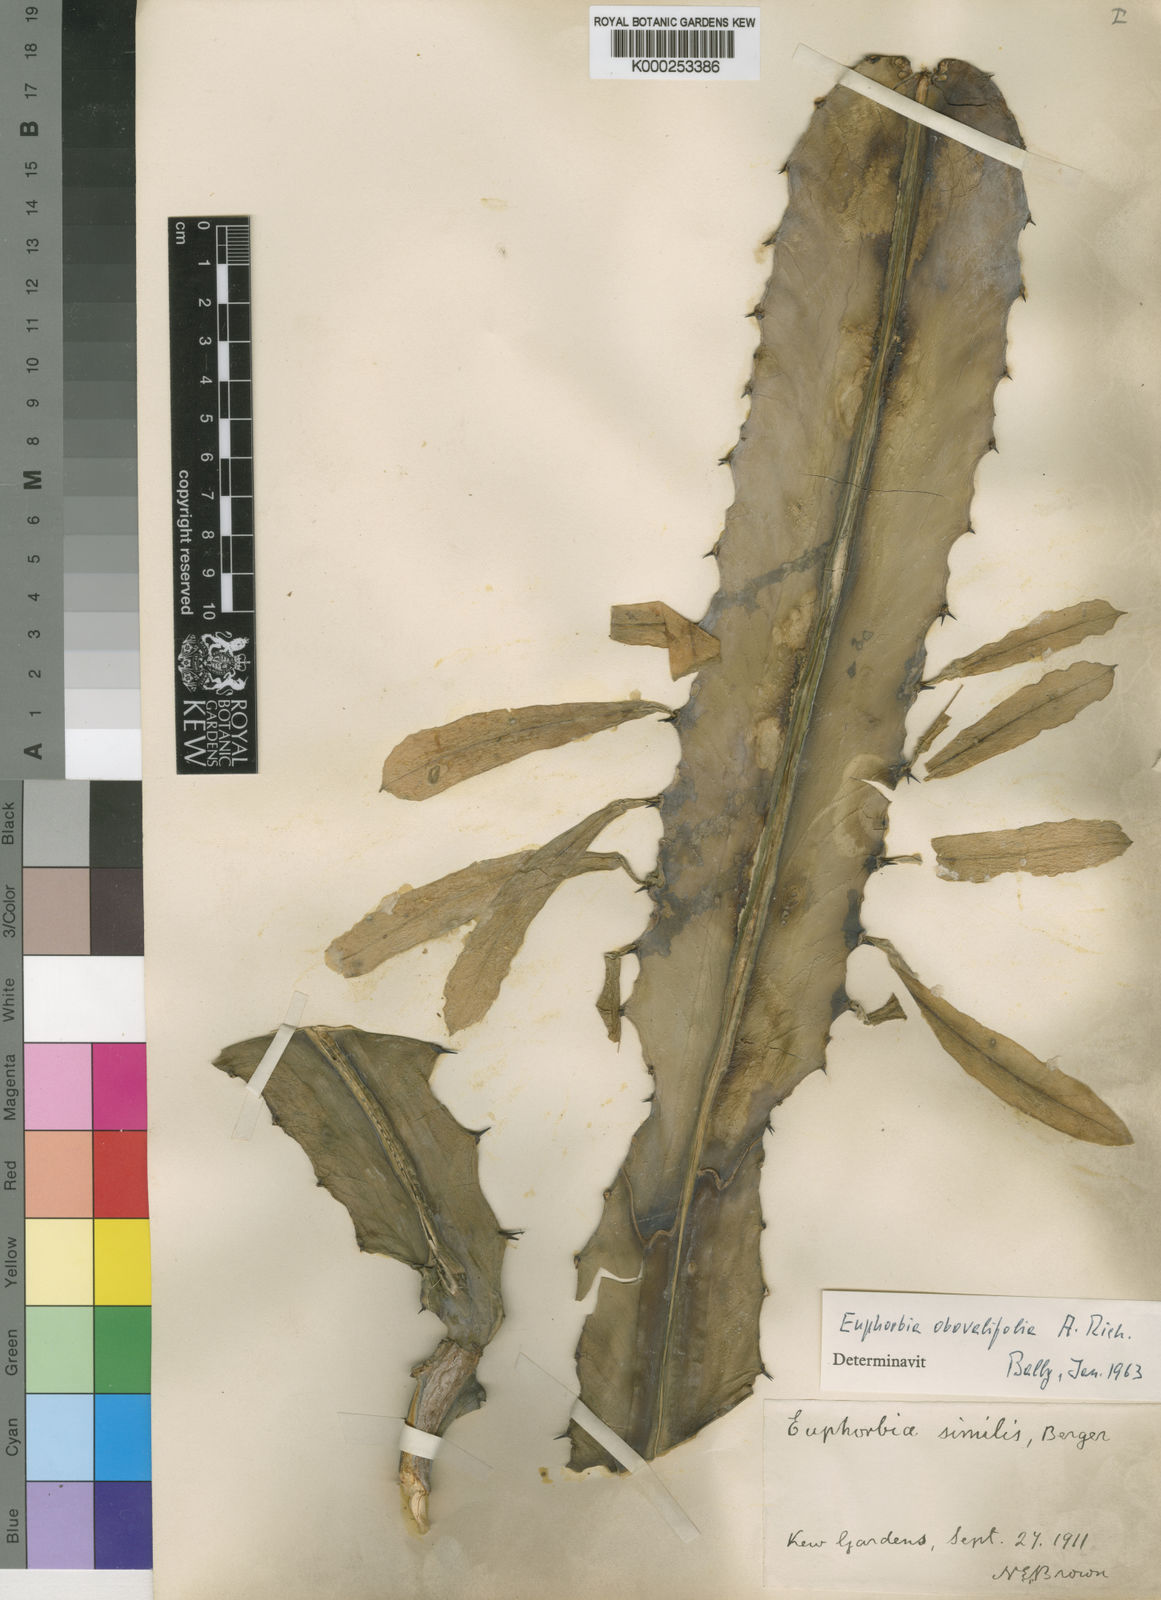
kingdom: Plantae
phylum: Tracheophyta
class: Magnoliopsida
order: Malpighiales
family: Euphorbiaceae
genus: Euphorbia
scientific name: Euphorbia
